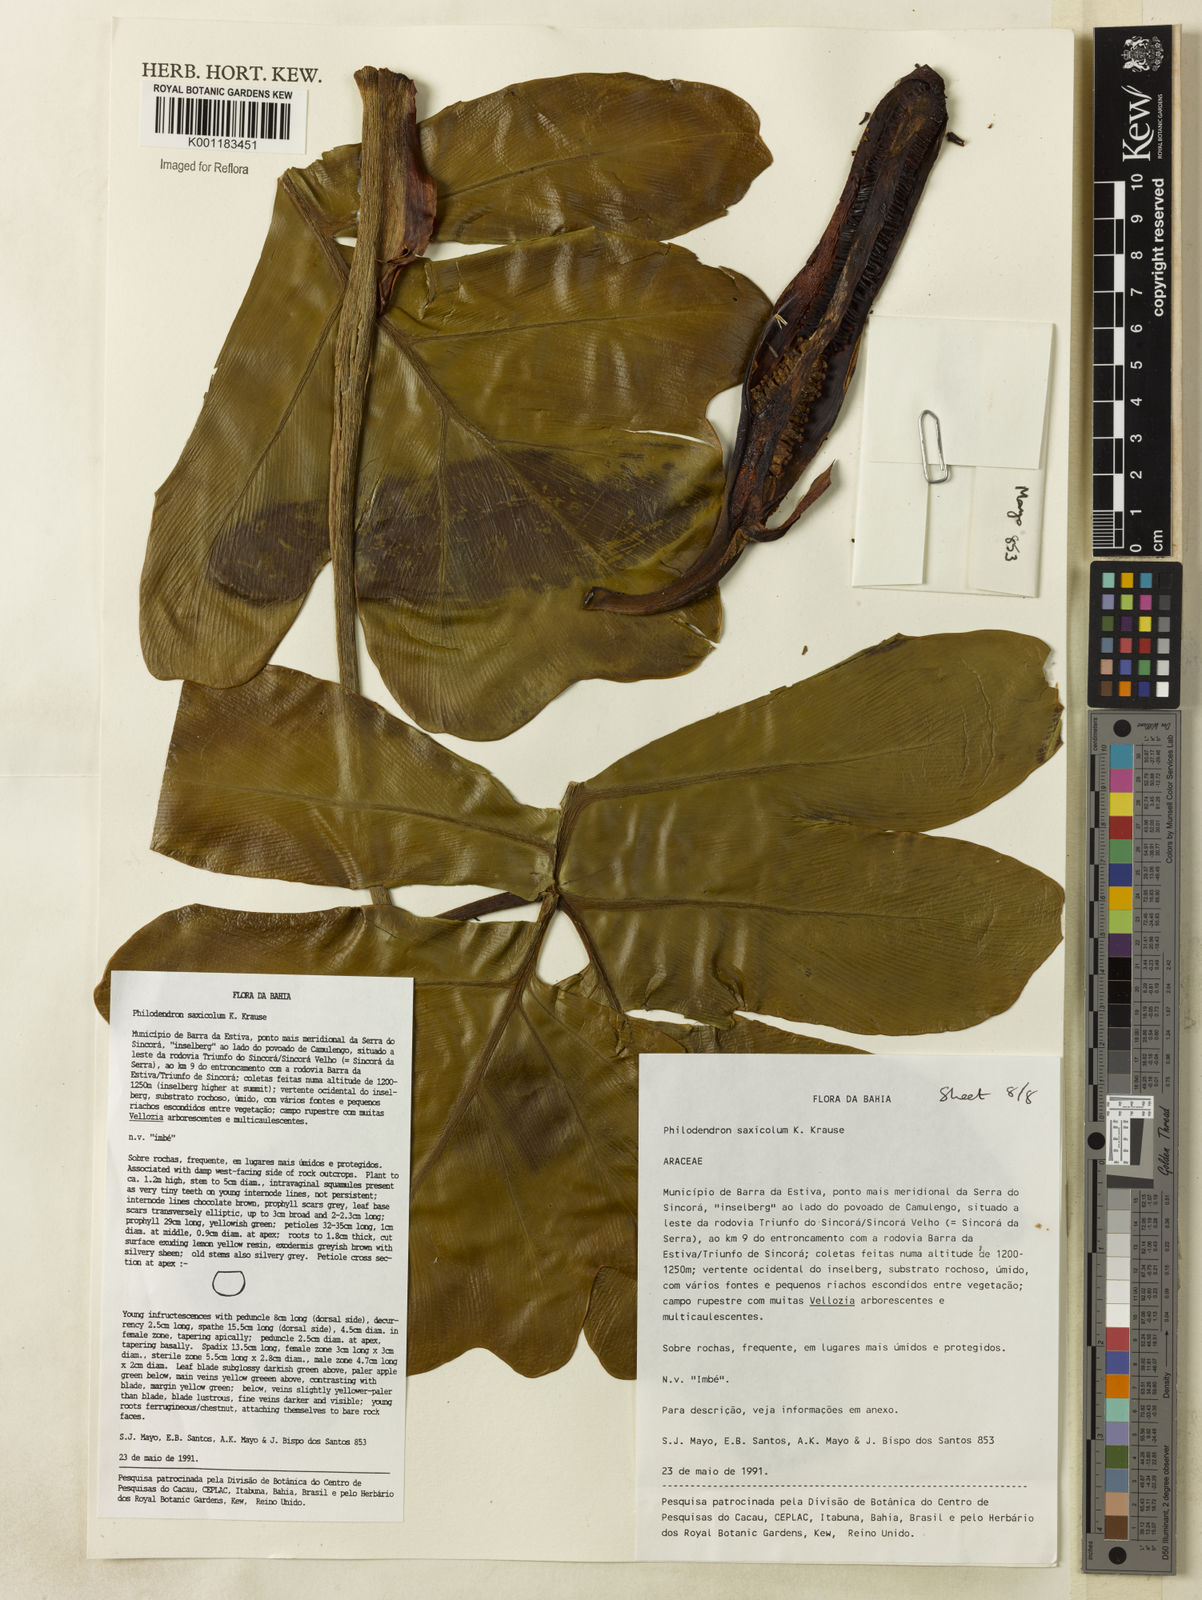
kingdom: Plantae
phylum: Tracheophyta
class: Liliopsida
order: Alismatales
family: Araceae
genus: Thaumatophyllum
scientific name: Thaumatophyllum saxicola
